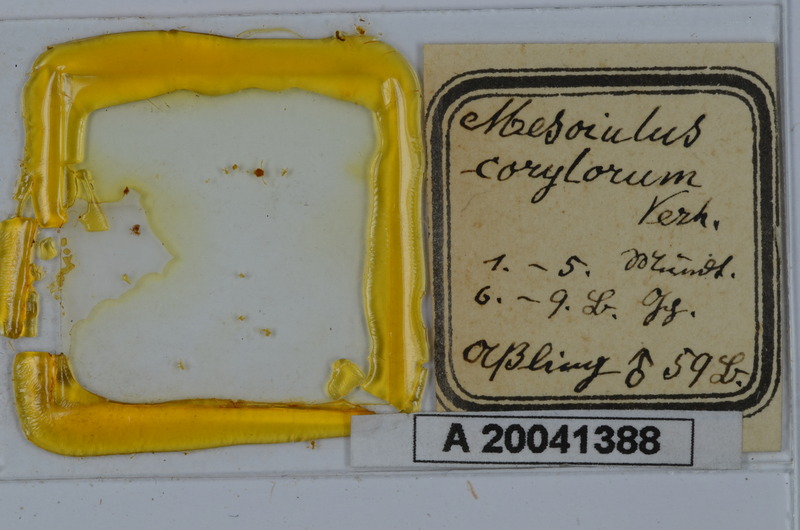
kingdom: Animalia
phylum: Arthropoda
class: Diplopoda
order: Julida
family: Julidae
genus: Hylopachyiulus
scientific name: Hylopachyiulus corylorum
